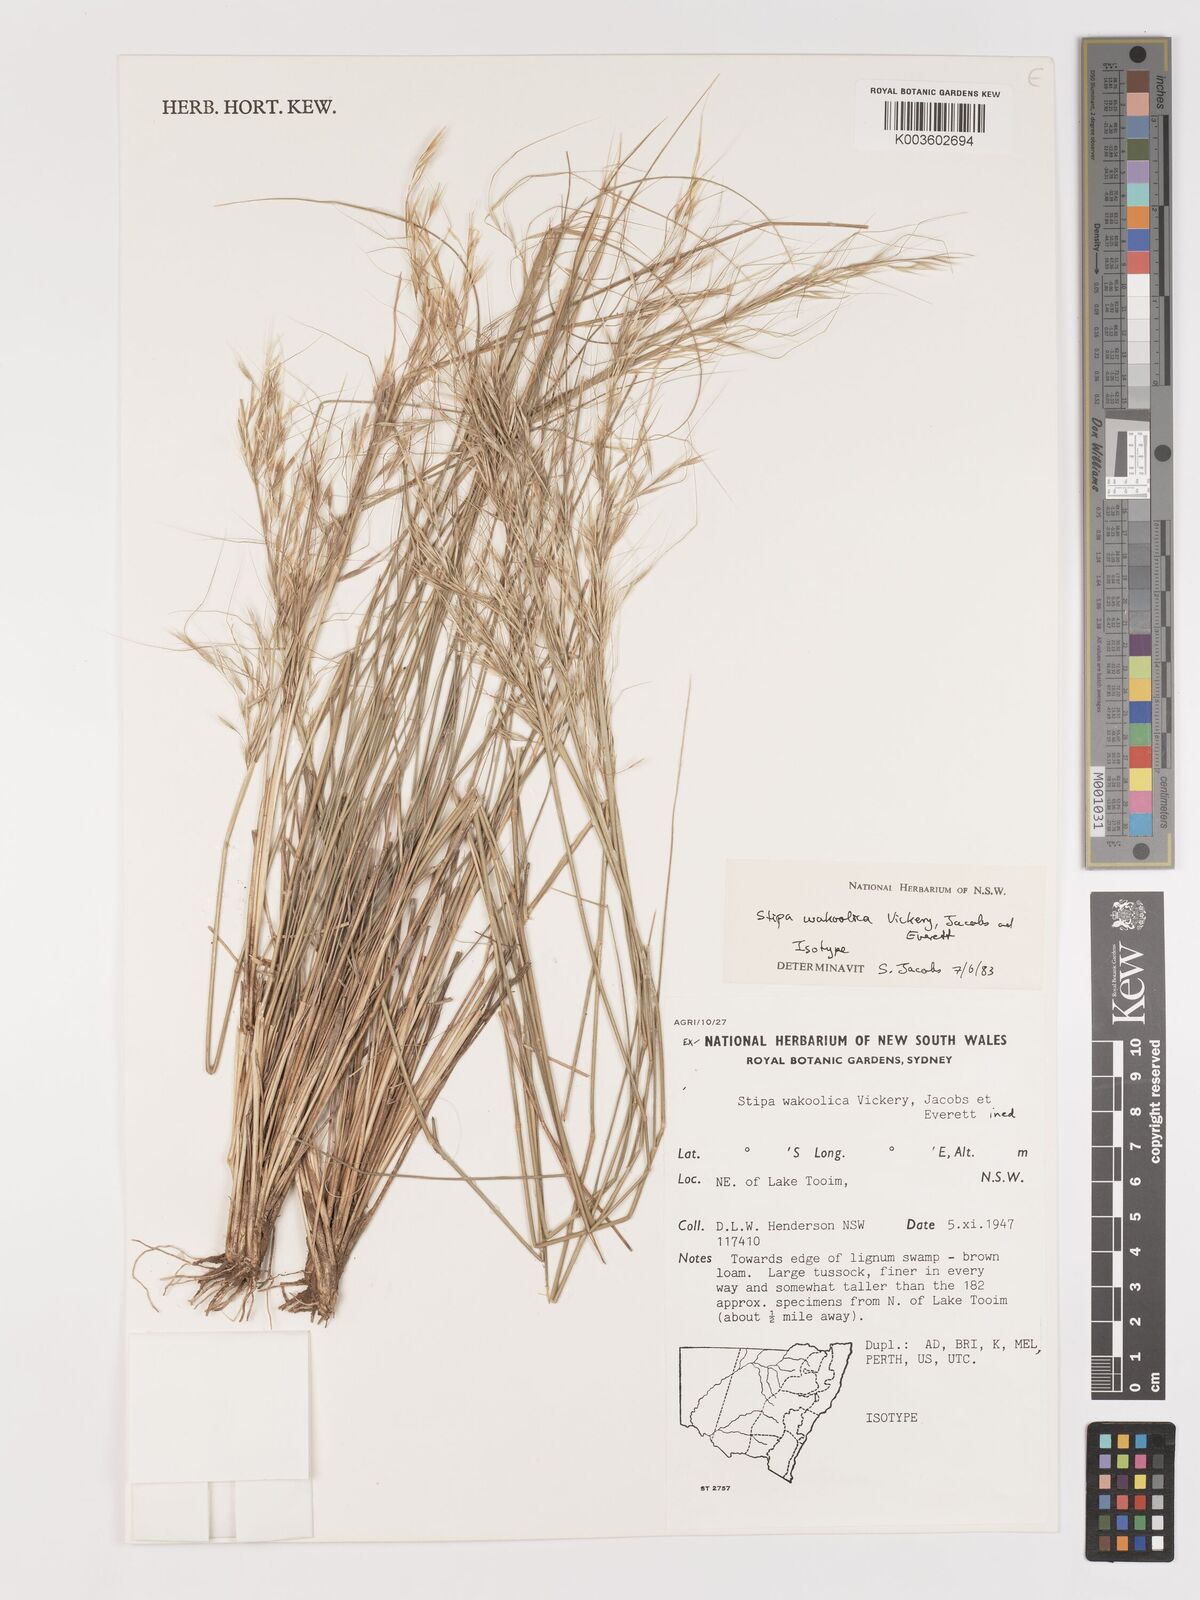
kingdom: Plantae
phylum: Tracheophyta
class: Liliopsida
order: Poales
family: Poaceae
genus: Austrostipa
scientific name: Austrostipa wakoolica
